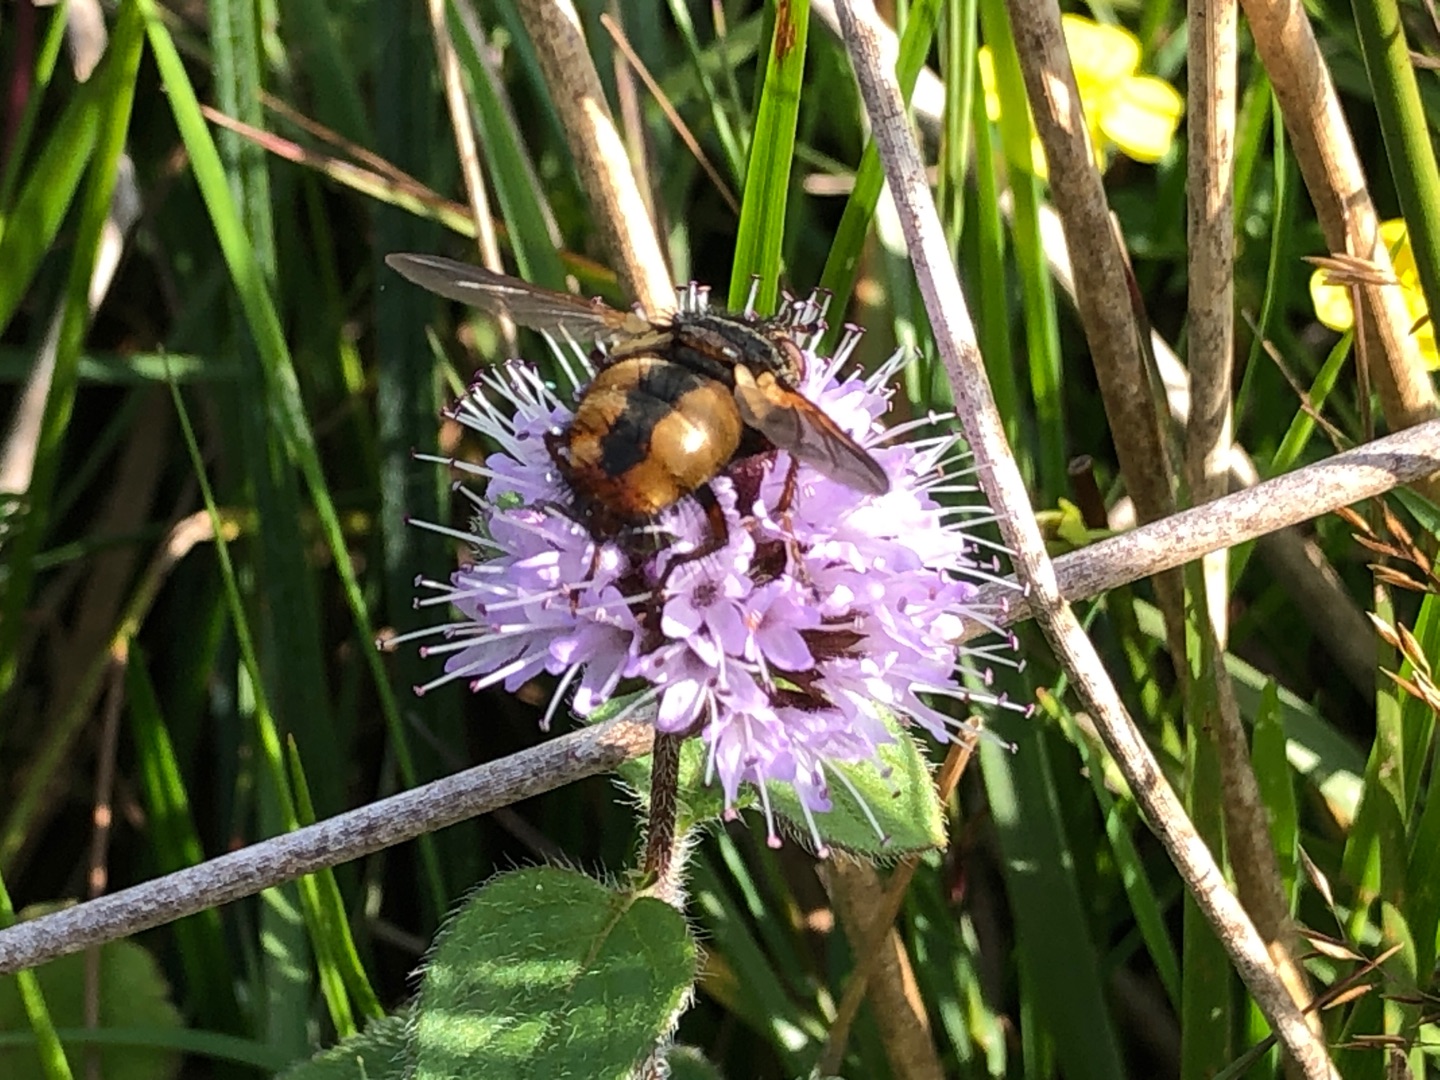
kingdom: Animalia
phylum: Arthropoda
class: Insecta
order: Diptera
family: Tachinidae
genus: Tachina
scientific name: Tachina fera
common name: Mellemfluen oskar
